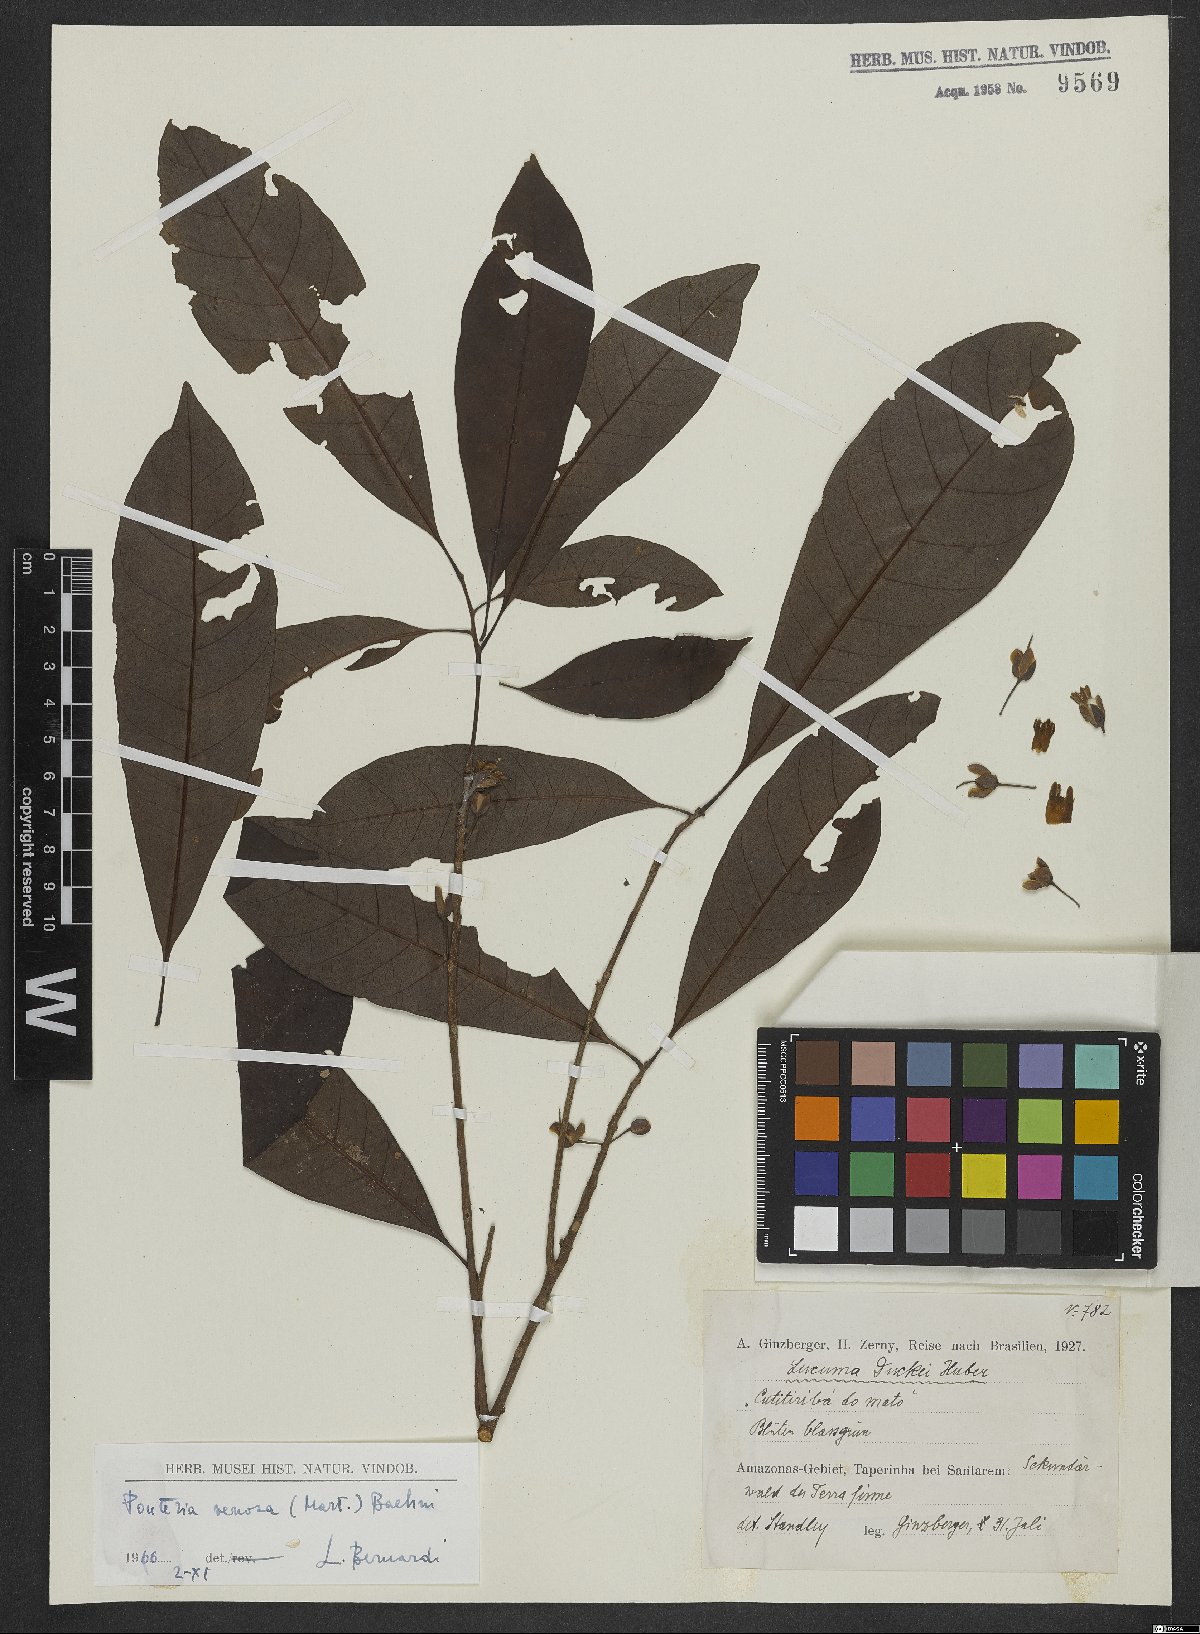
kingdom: Plantae
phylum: Tracheophyta
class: Magnoliopsida
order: Ericales
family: Sapotaceae
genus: Pouteria
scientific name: Pouteria venosa
